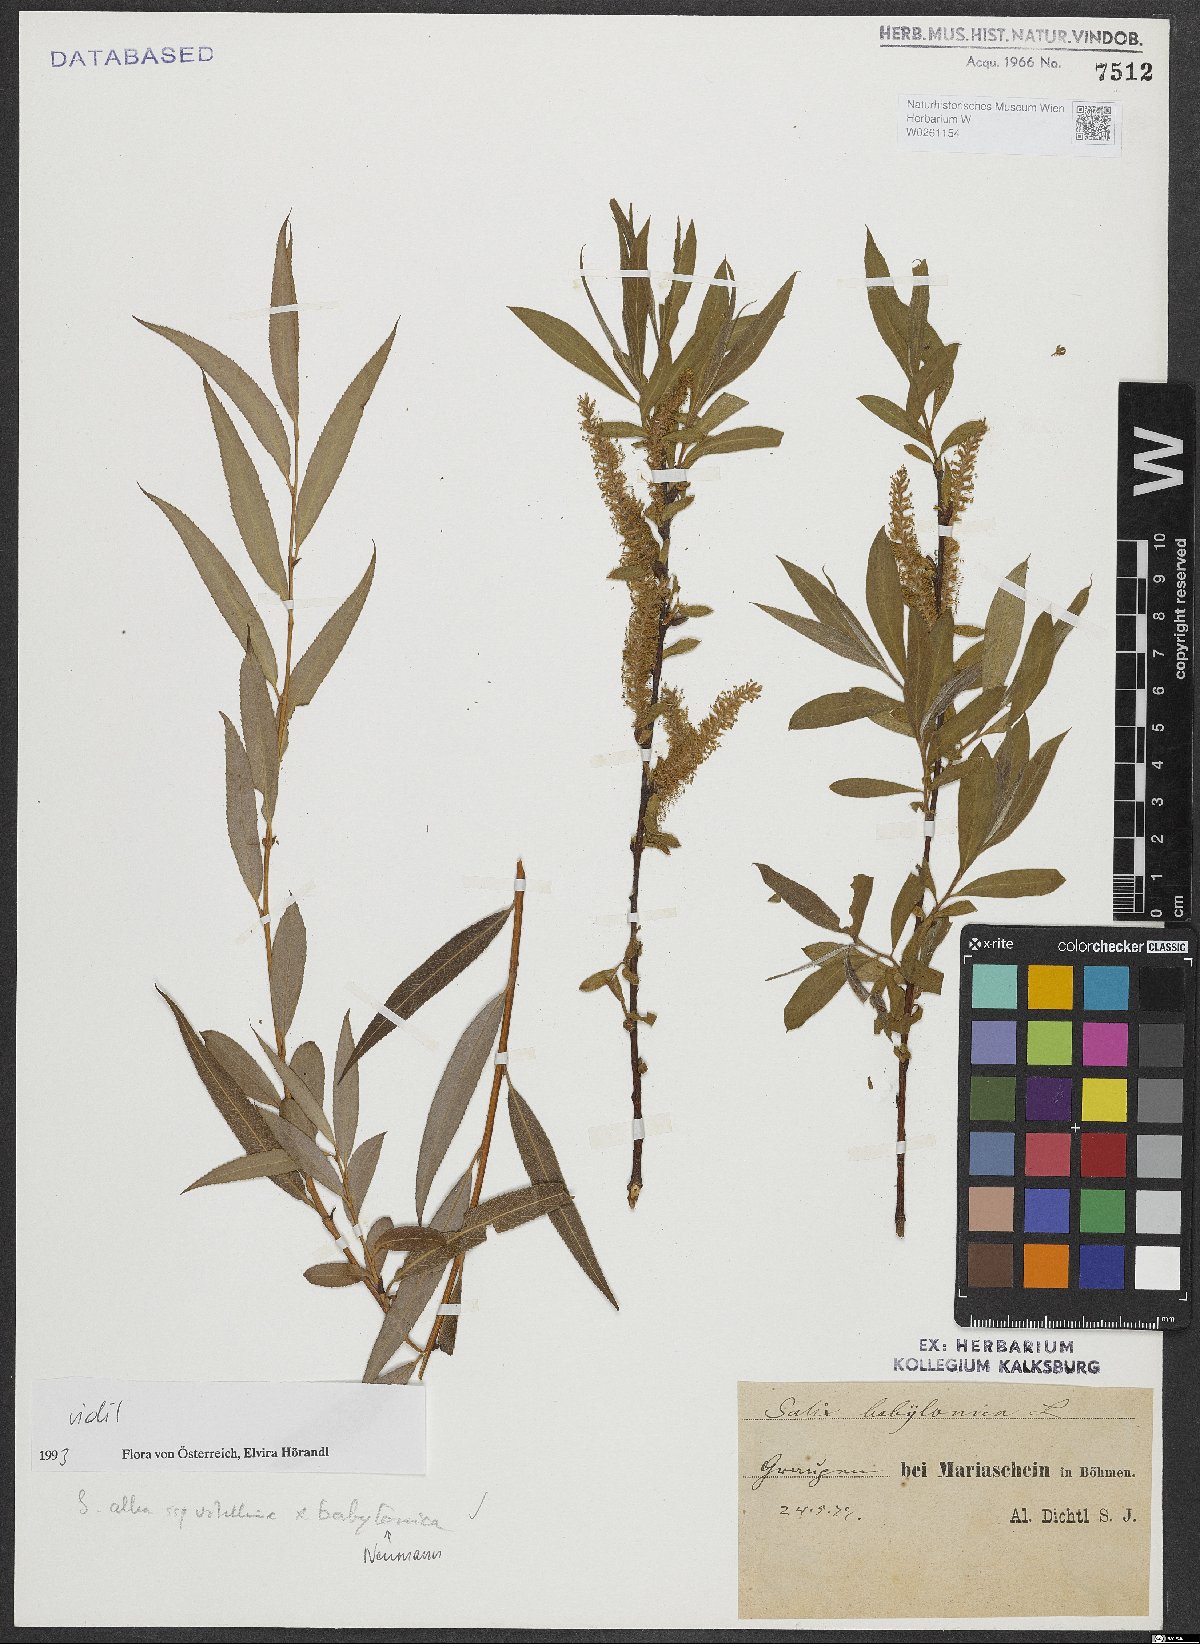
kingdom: Plantae
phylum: Tracheophyta
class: Magnoliopsida
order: Malpighiales
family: Salicaceae
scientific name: Salicaceae
